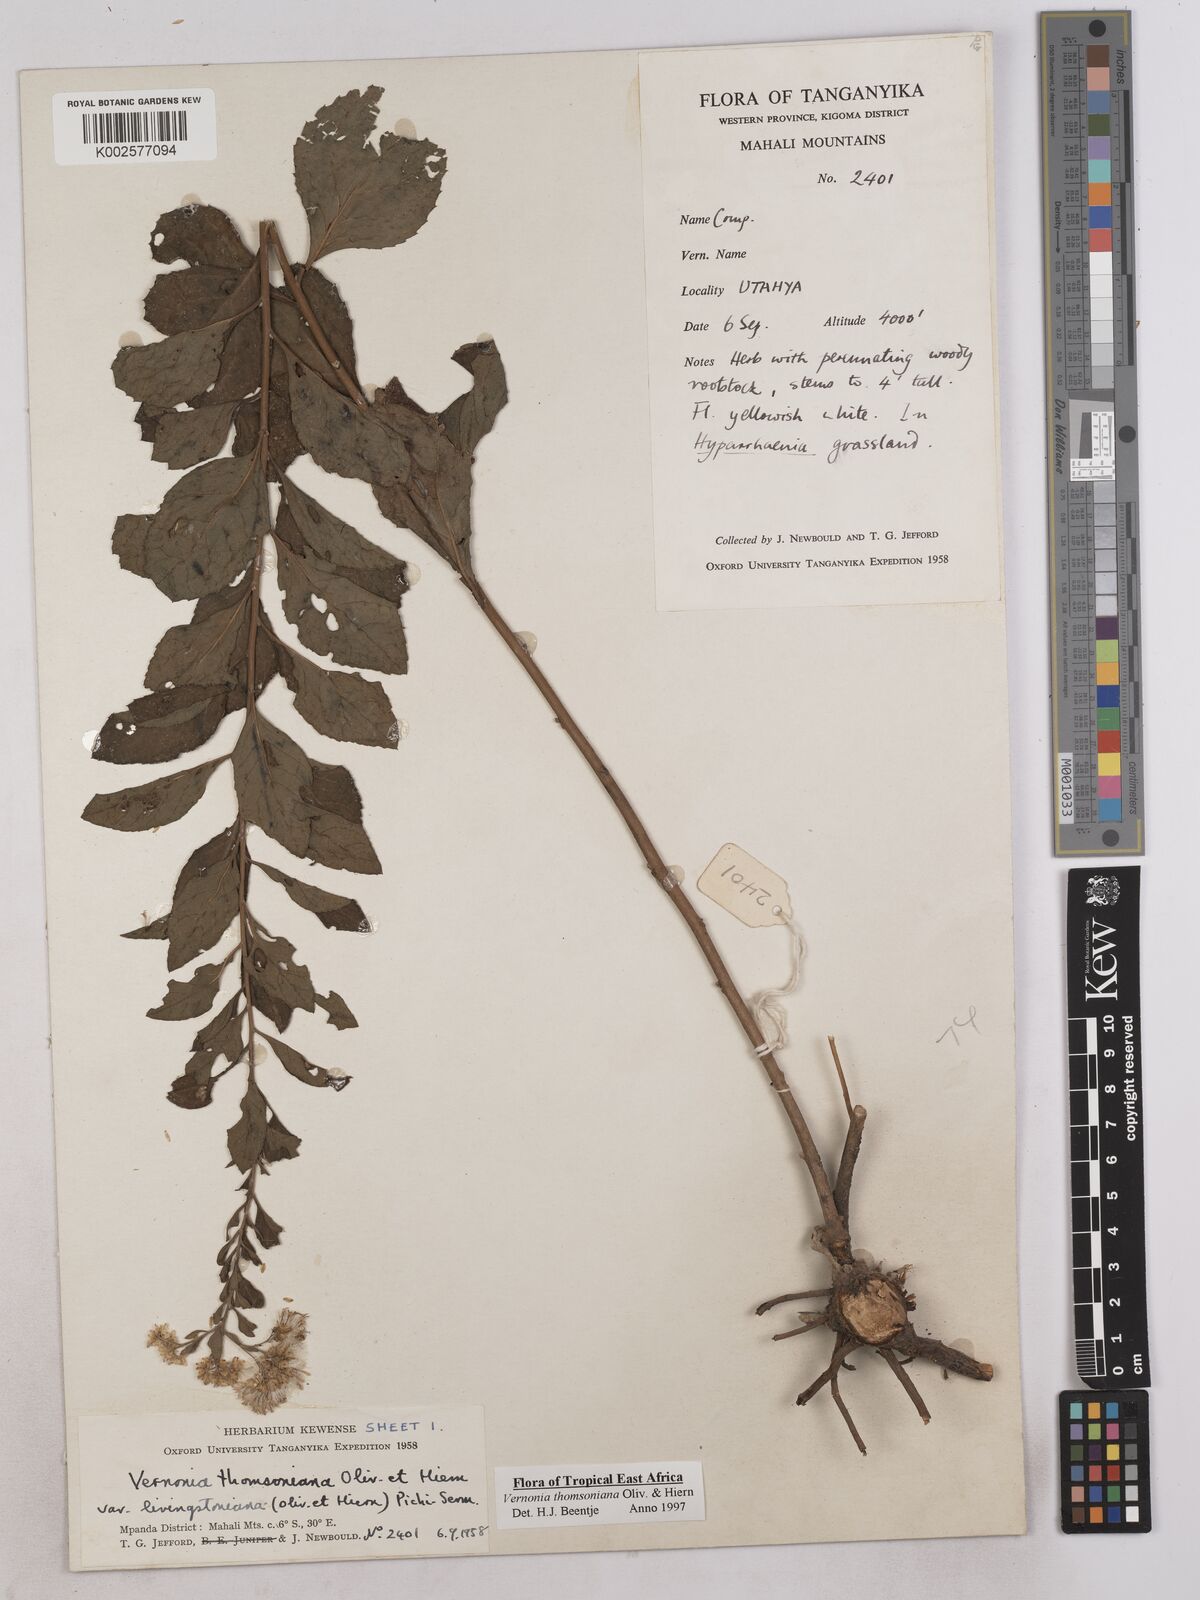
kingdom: Plantae
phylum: Tracheophyta
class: Magnoliopsida
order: Asterales
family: Asteraceae
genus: Gymnanthemum
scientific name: Gymnanthemum thomsonianum
